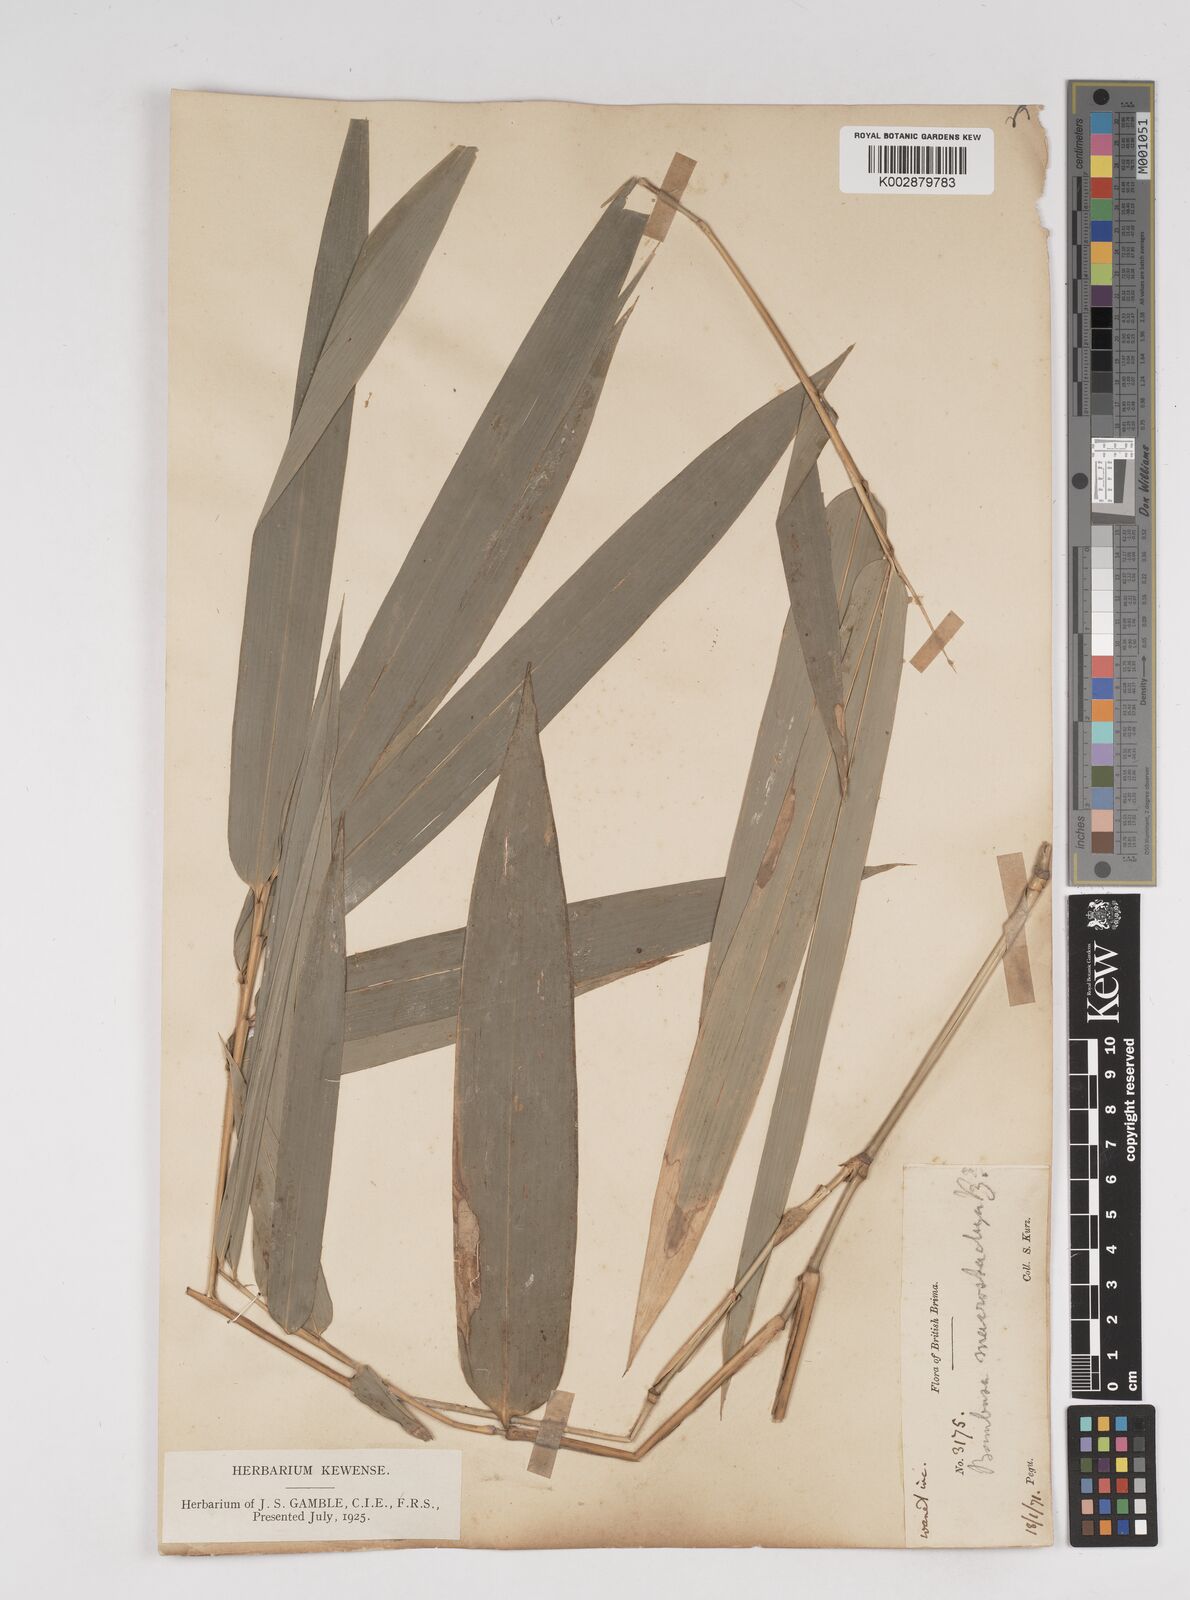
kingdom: Plantae
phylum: Tracheophyta
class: Liliopsida
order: Poales
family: Poaceae
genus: Gigantochloa
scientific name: Gigantochloa macrostachya
